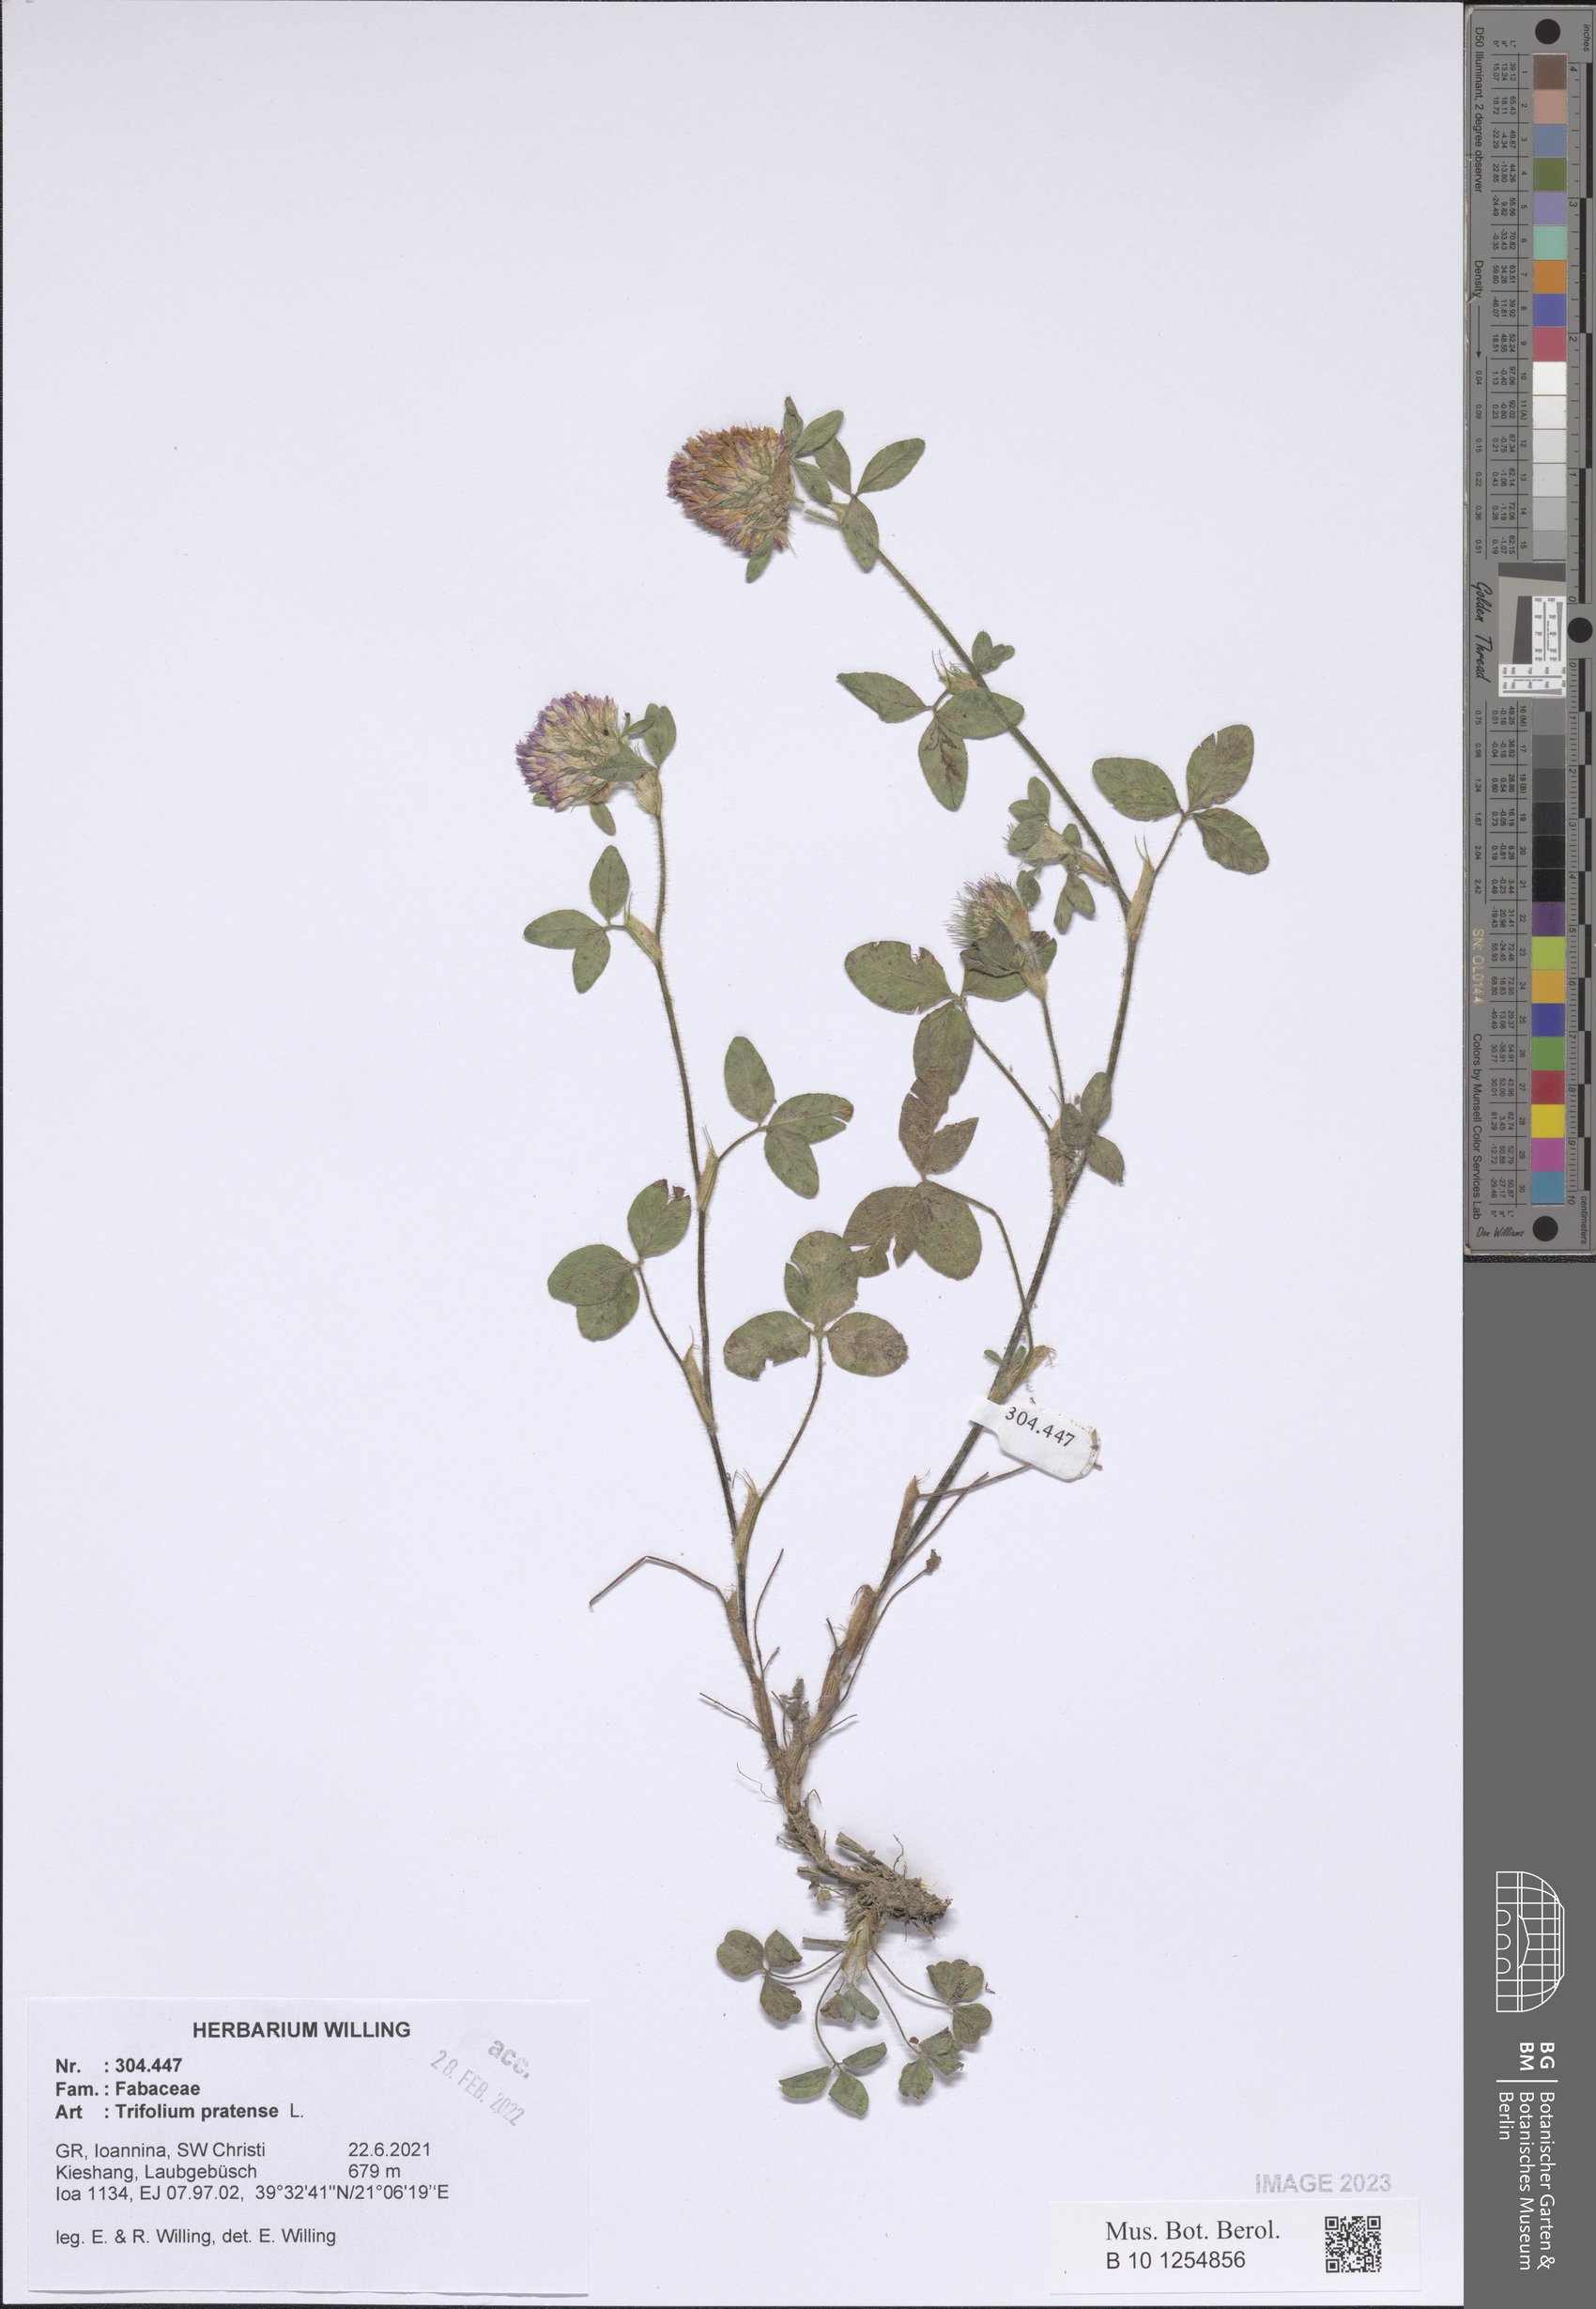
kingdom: Plantae
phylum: Tracheophyta
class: Magnoliopsida
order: Fabales
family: Fabaceae
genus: Trifolium
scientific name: Trifolium pratense
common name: Red clover
